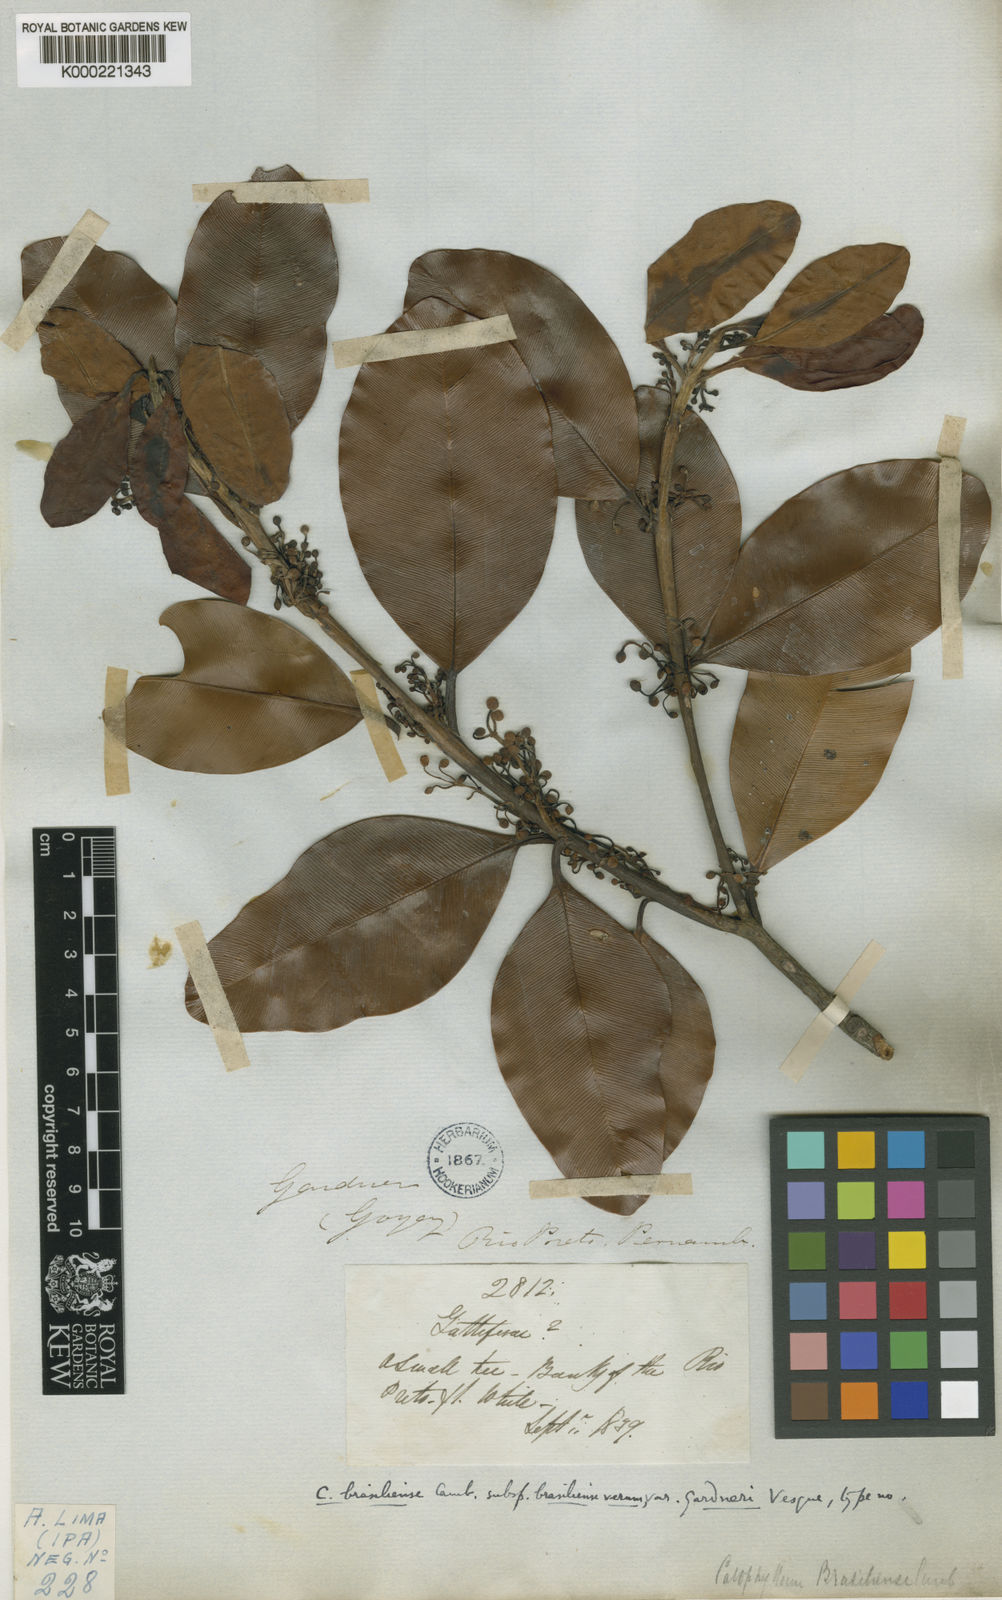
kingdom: Plantae
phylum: Tracheophyta
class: Magnoliopsida
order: Malpighiales
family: Calophyllaceae
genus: Calophyllum
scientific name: Calophyllum brasiliense
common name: Santa maria
